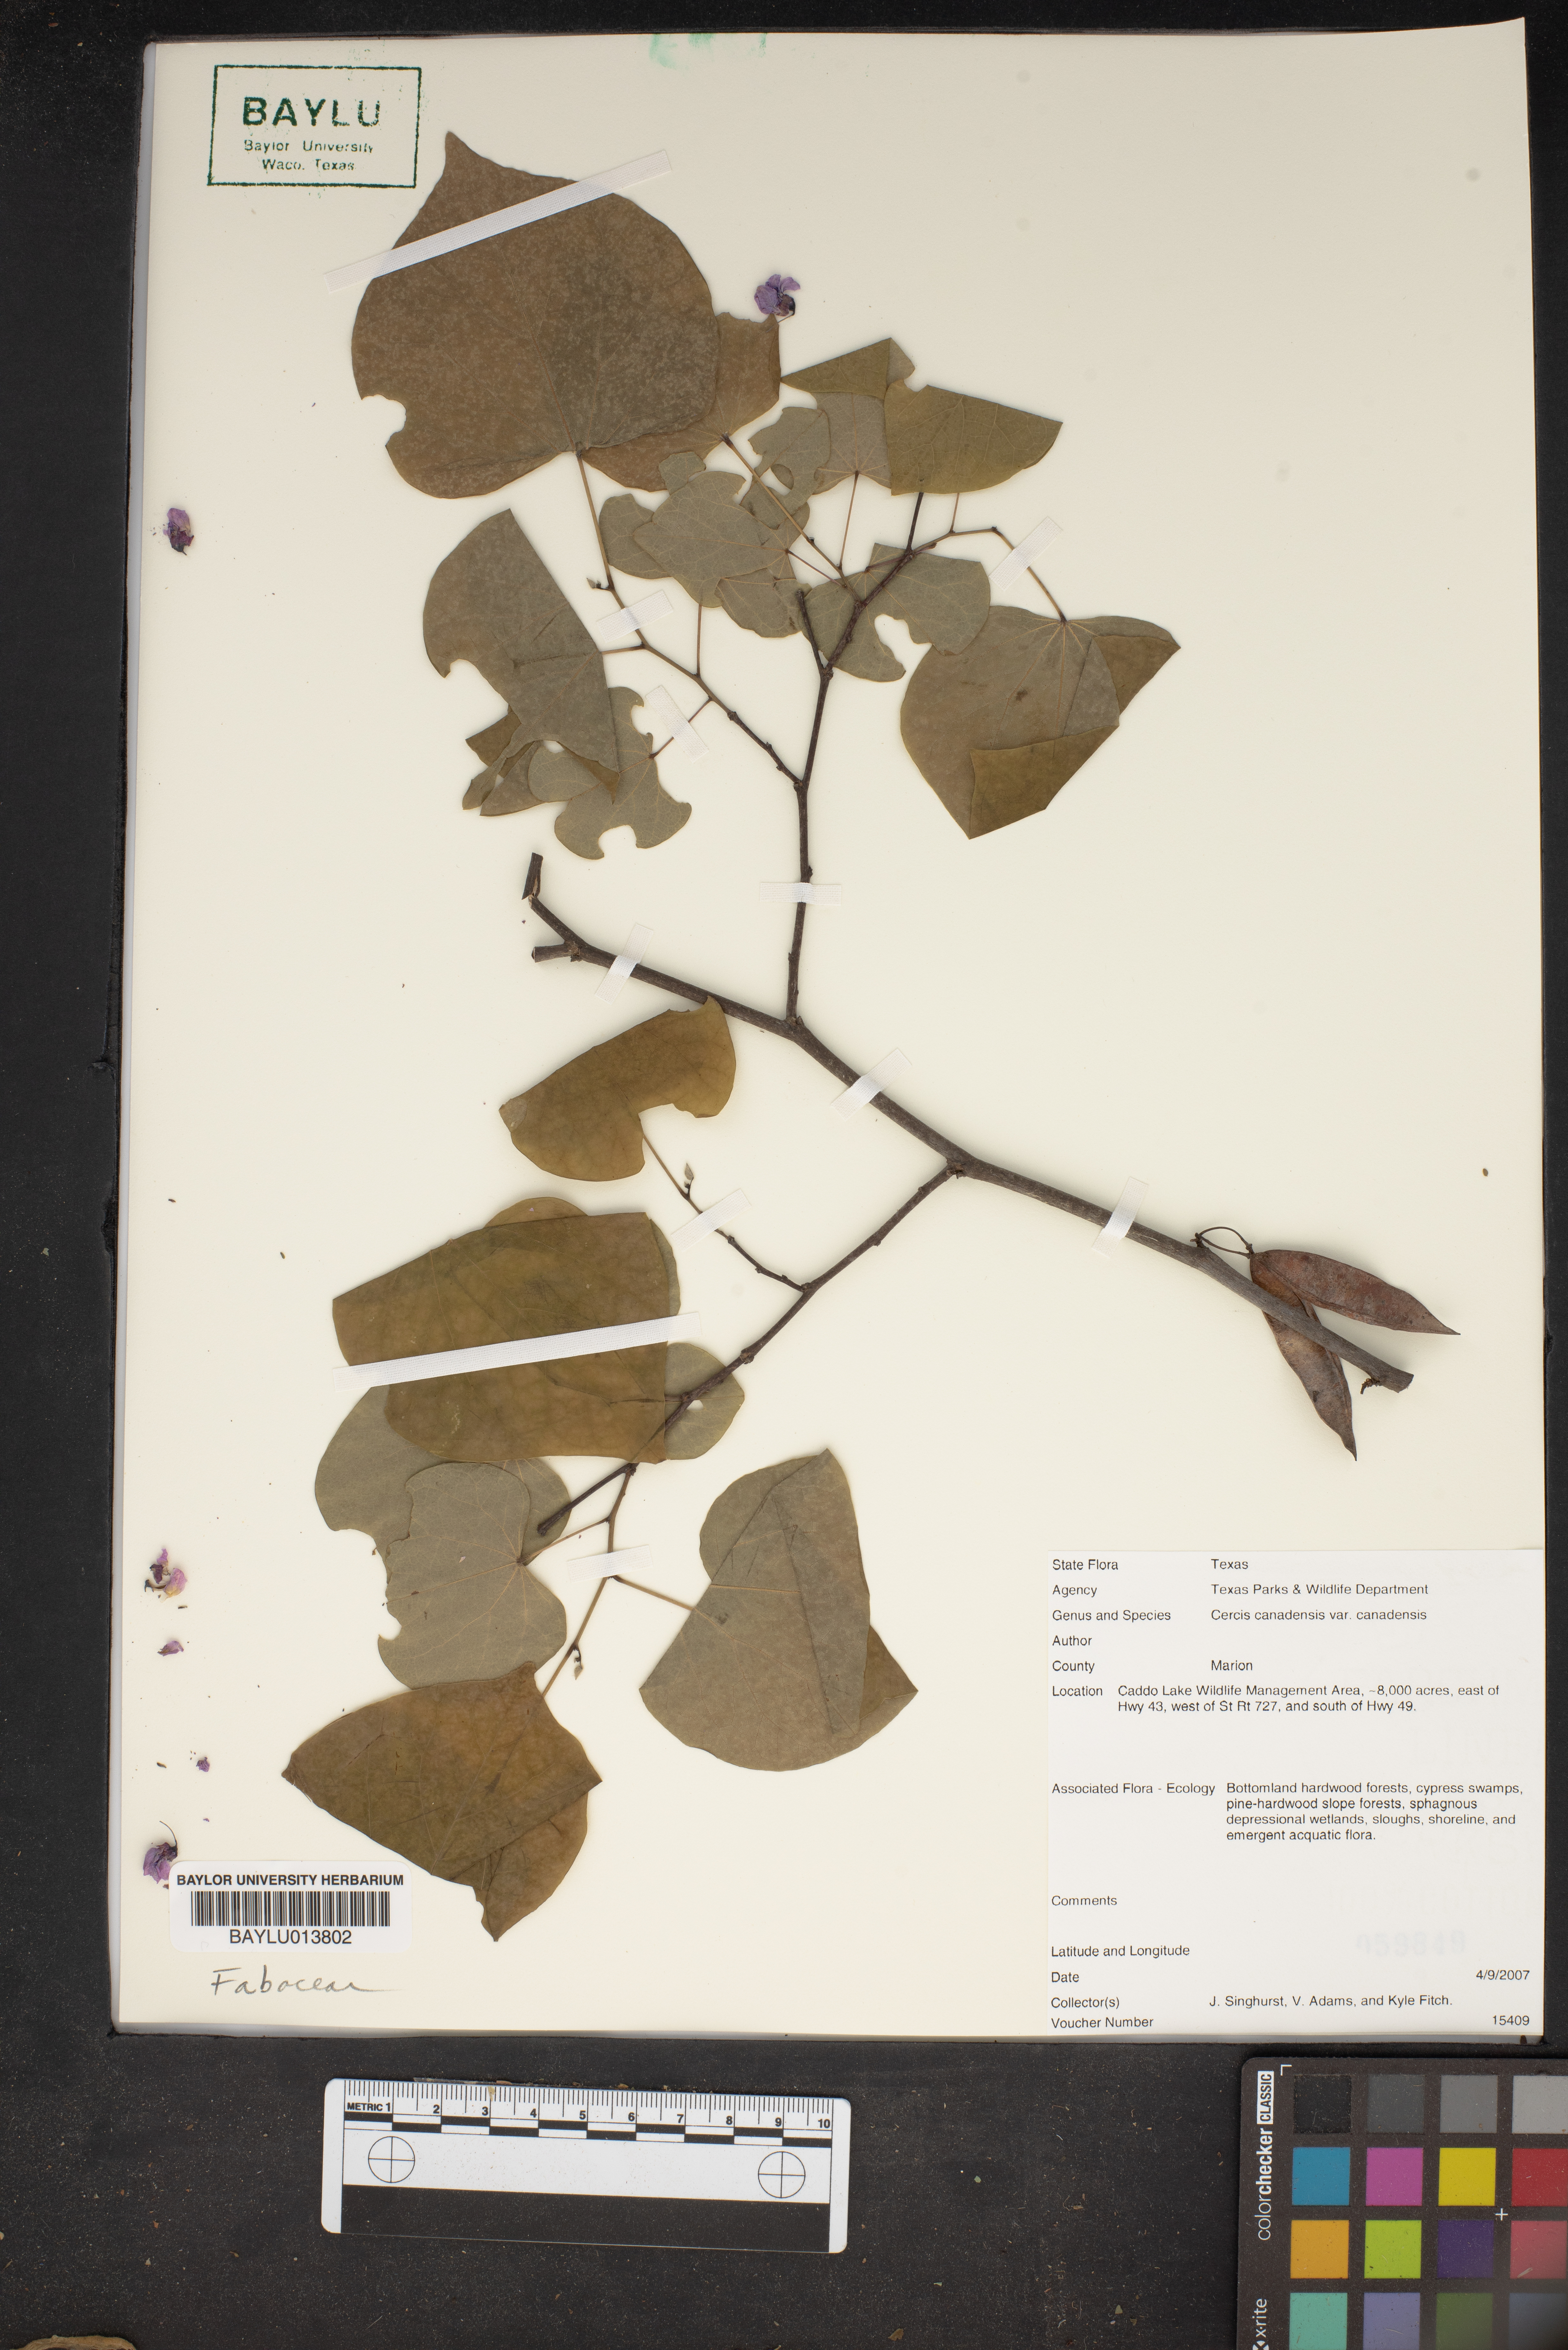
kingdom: Plantae
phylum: Tracheophyta
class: Magnoliopsida
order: Fabales
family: Fabaceae
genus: Cercis
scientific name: Cercis canadensis
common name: Eastern redbud
